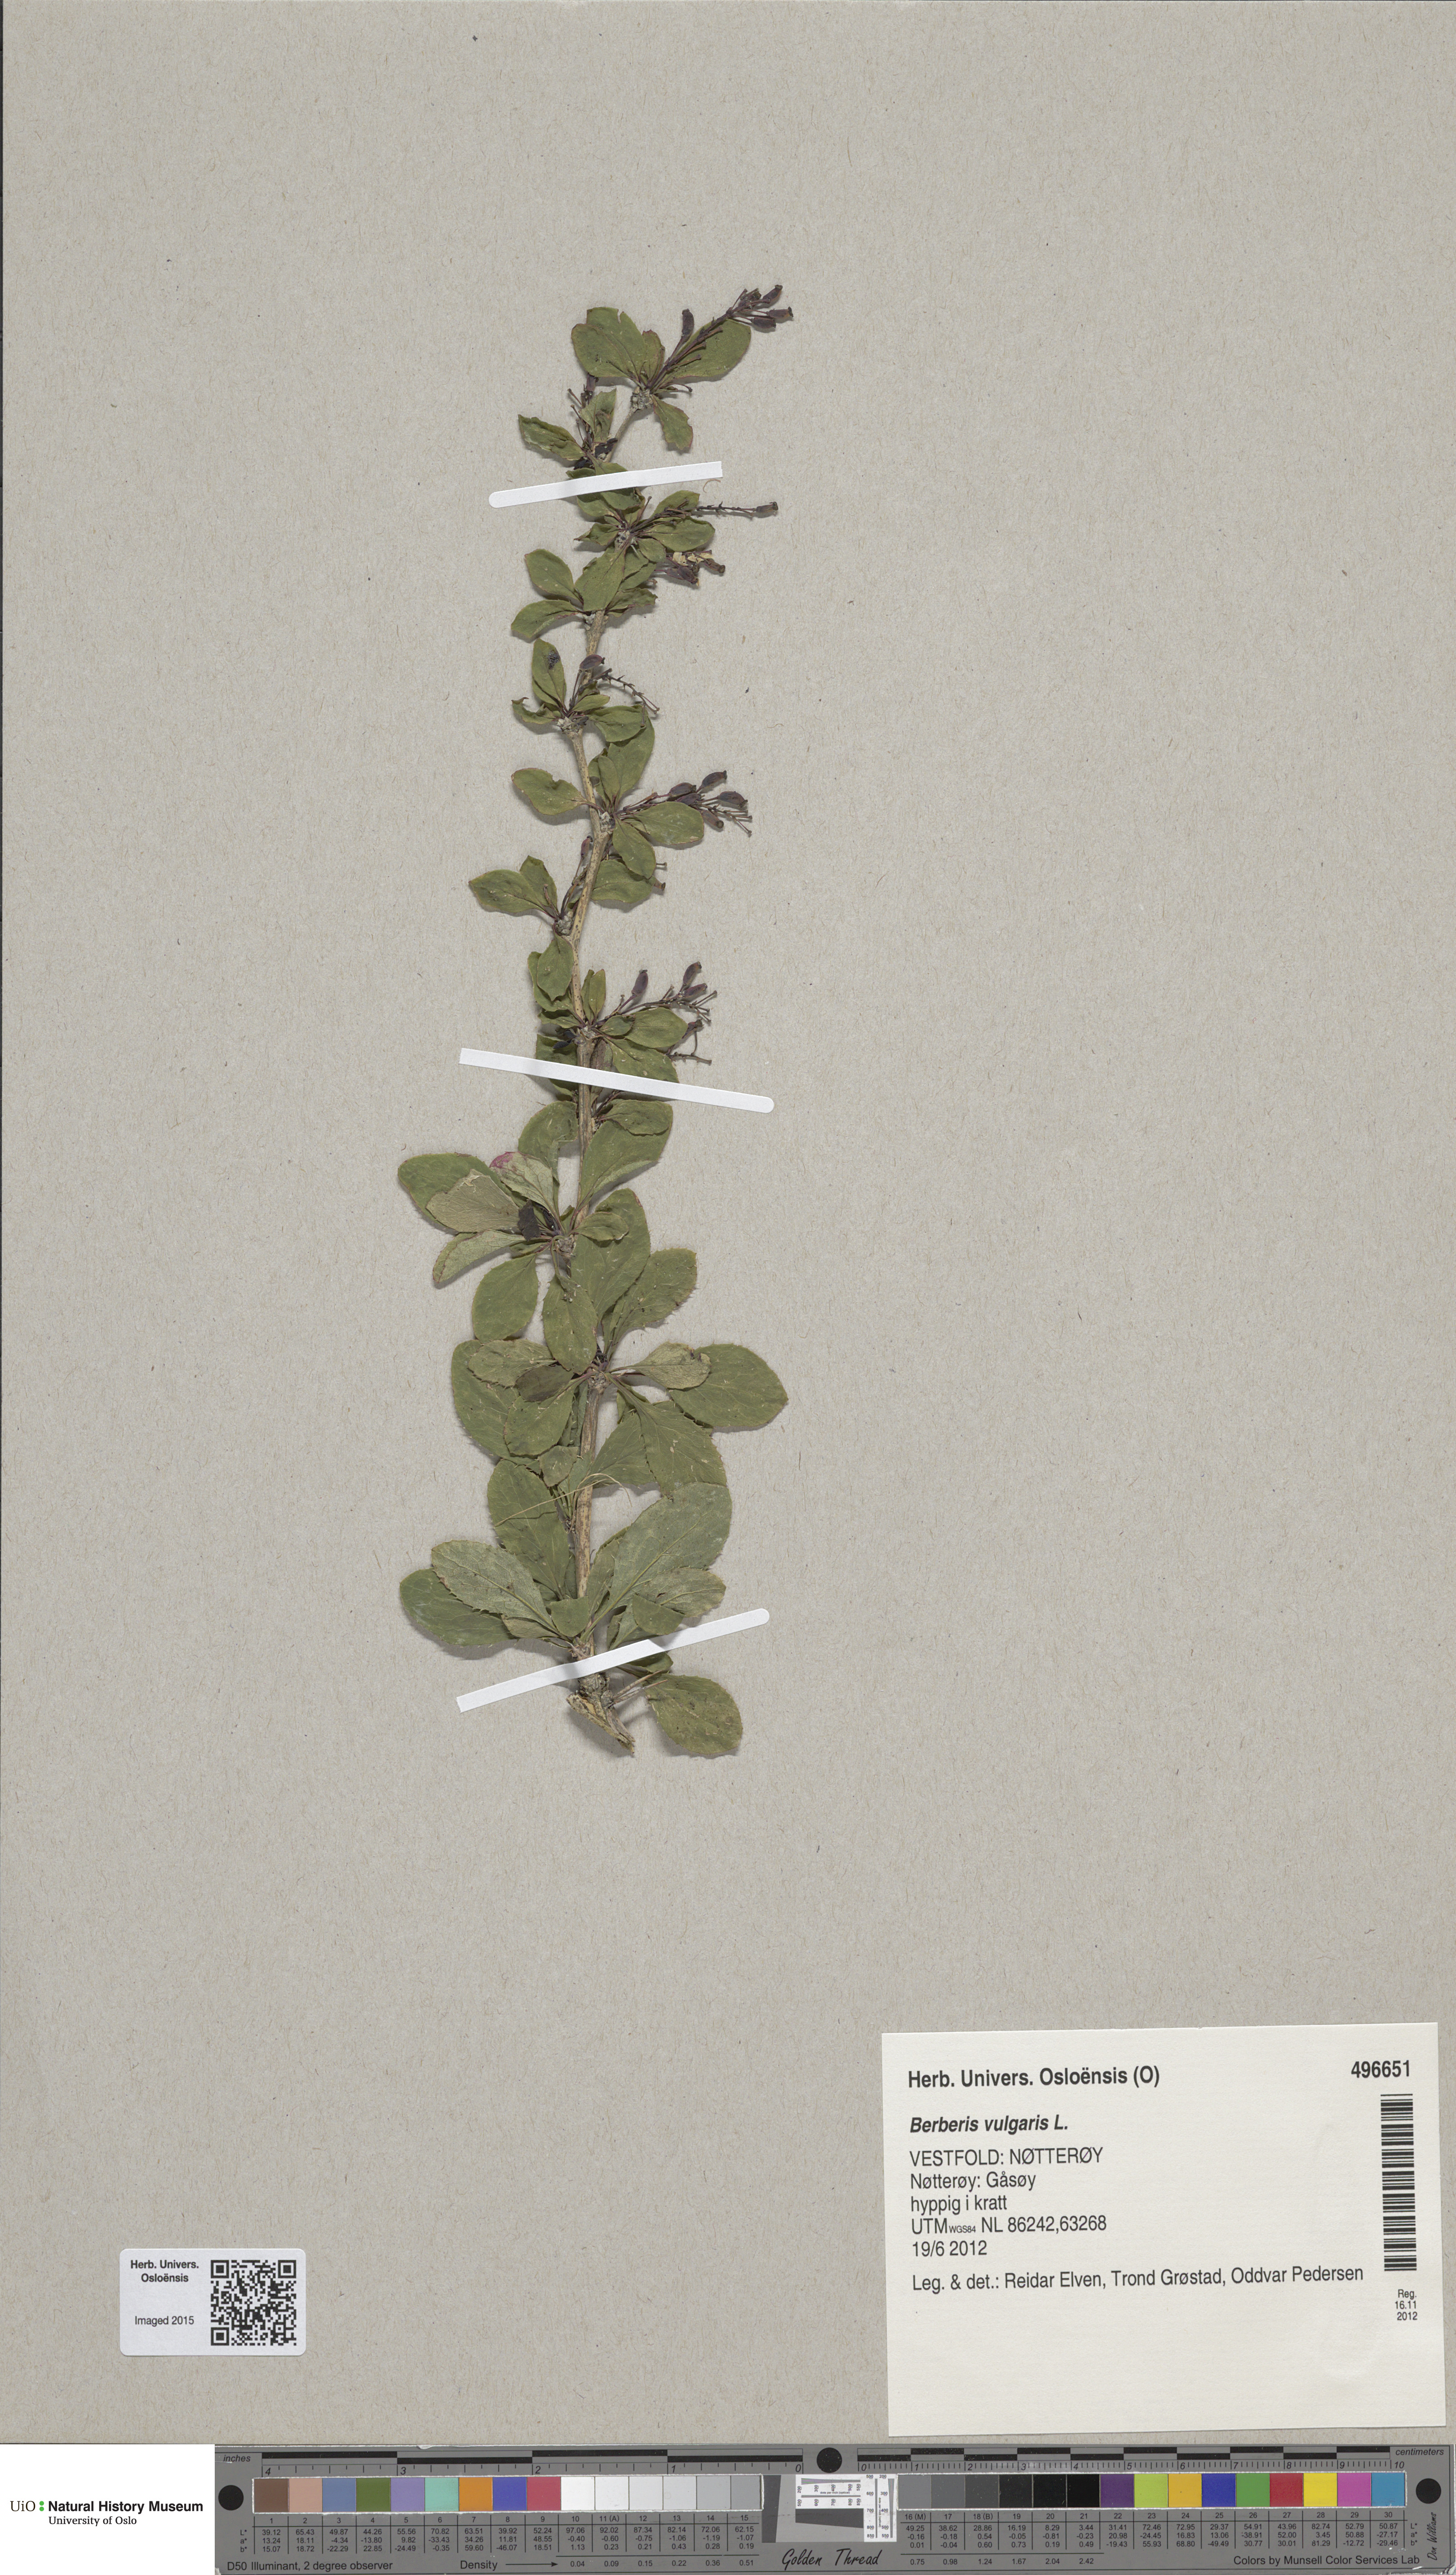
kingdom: Plantae
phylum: Tracheophyta
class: Magnoliopsida
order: Ranunculales
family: Berberidaceae
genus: Berberis
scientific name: Berberis vulgaris
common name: Barberry
